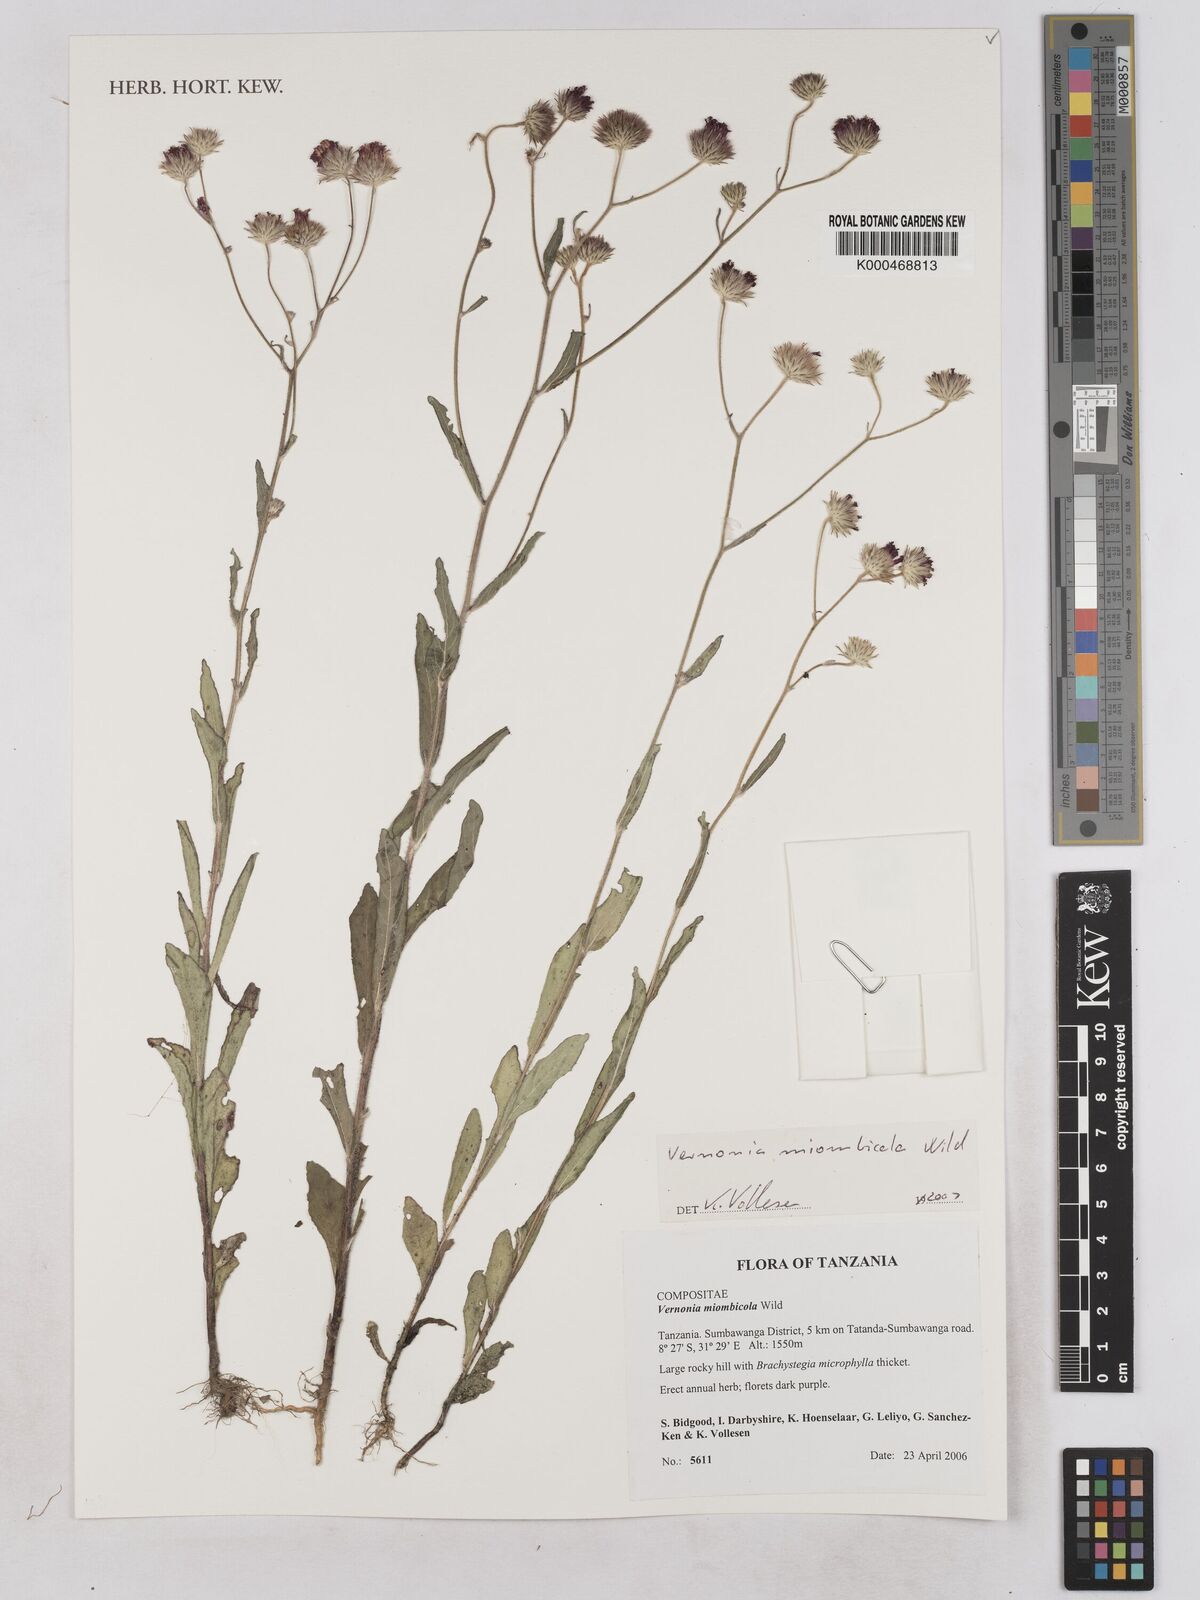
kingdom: Plantae
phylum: Tracheophyta
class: Magnoliopsida
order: Asterales
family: Asteraceae
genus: Vernonia
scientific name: Vernonia miombicola
